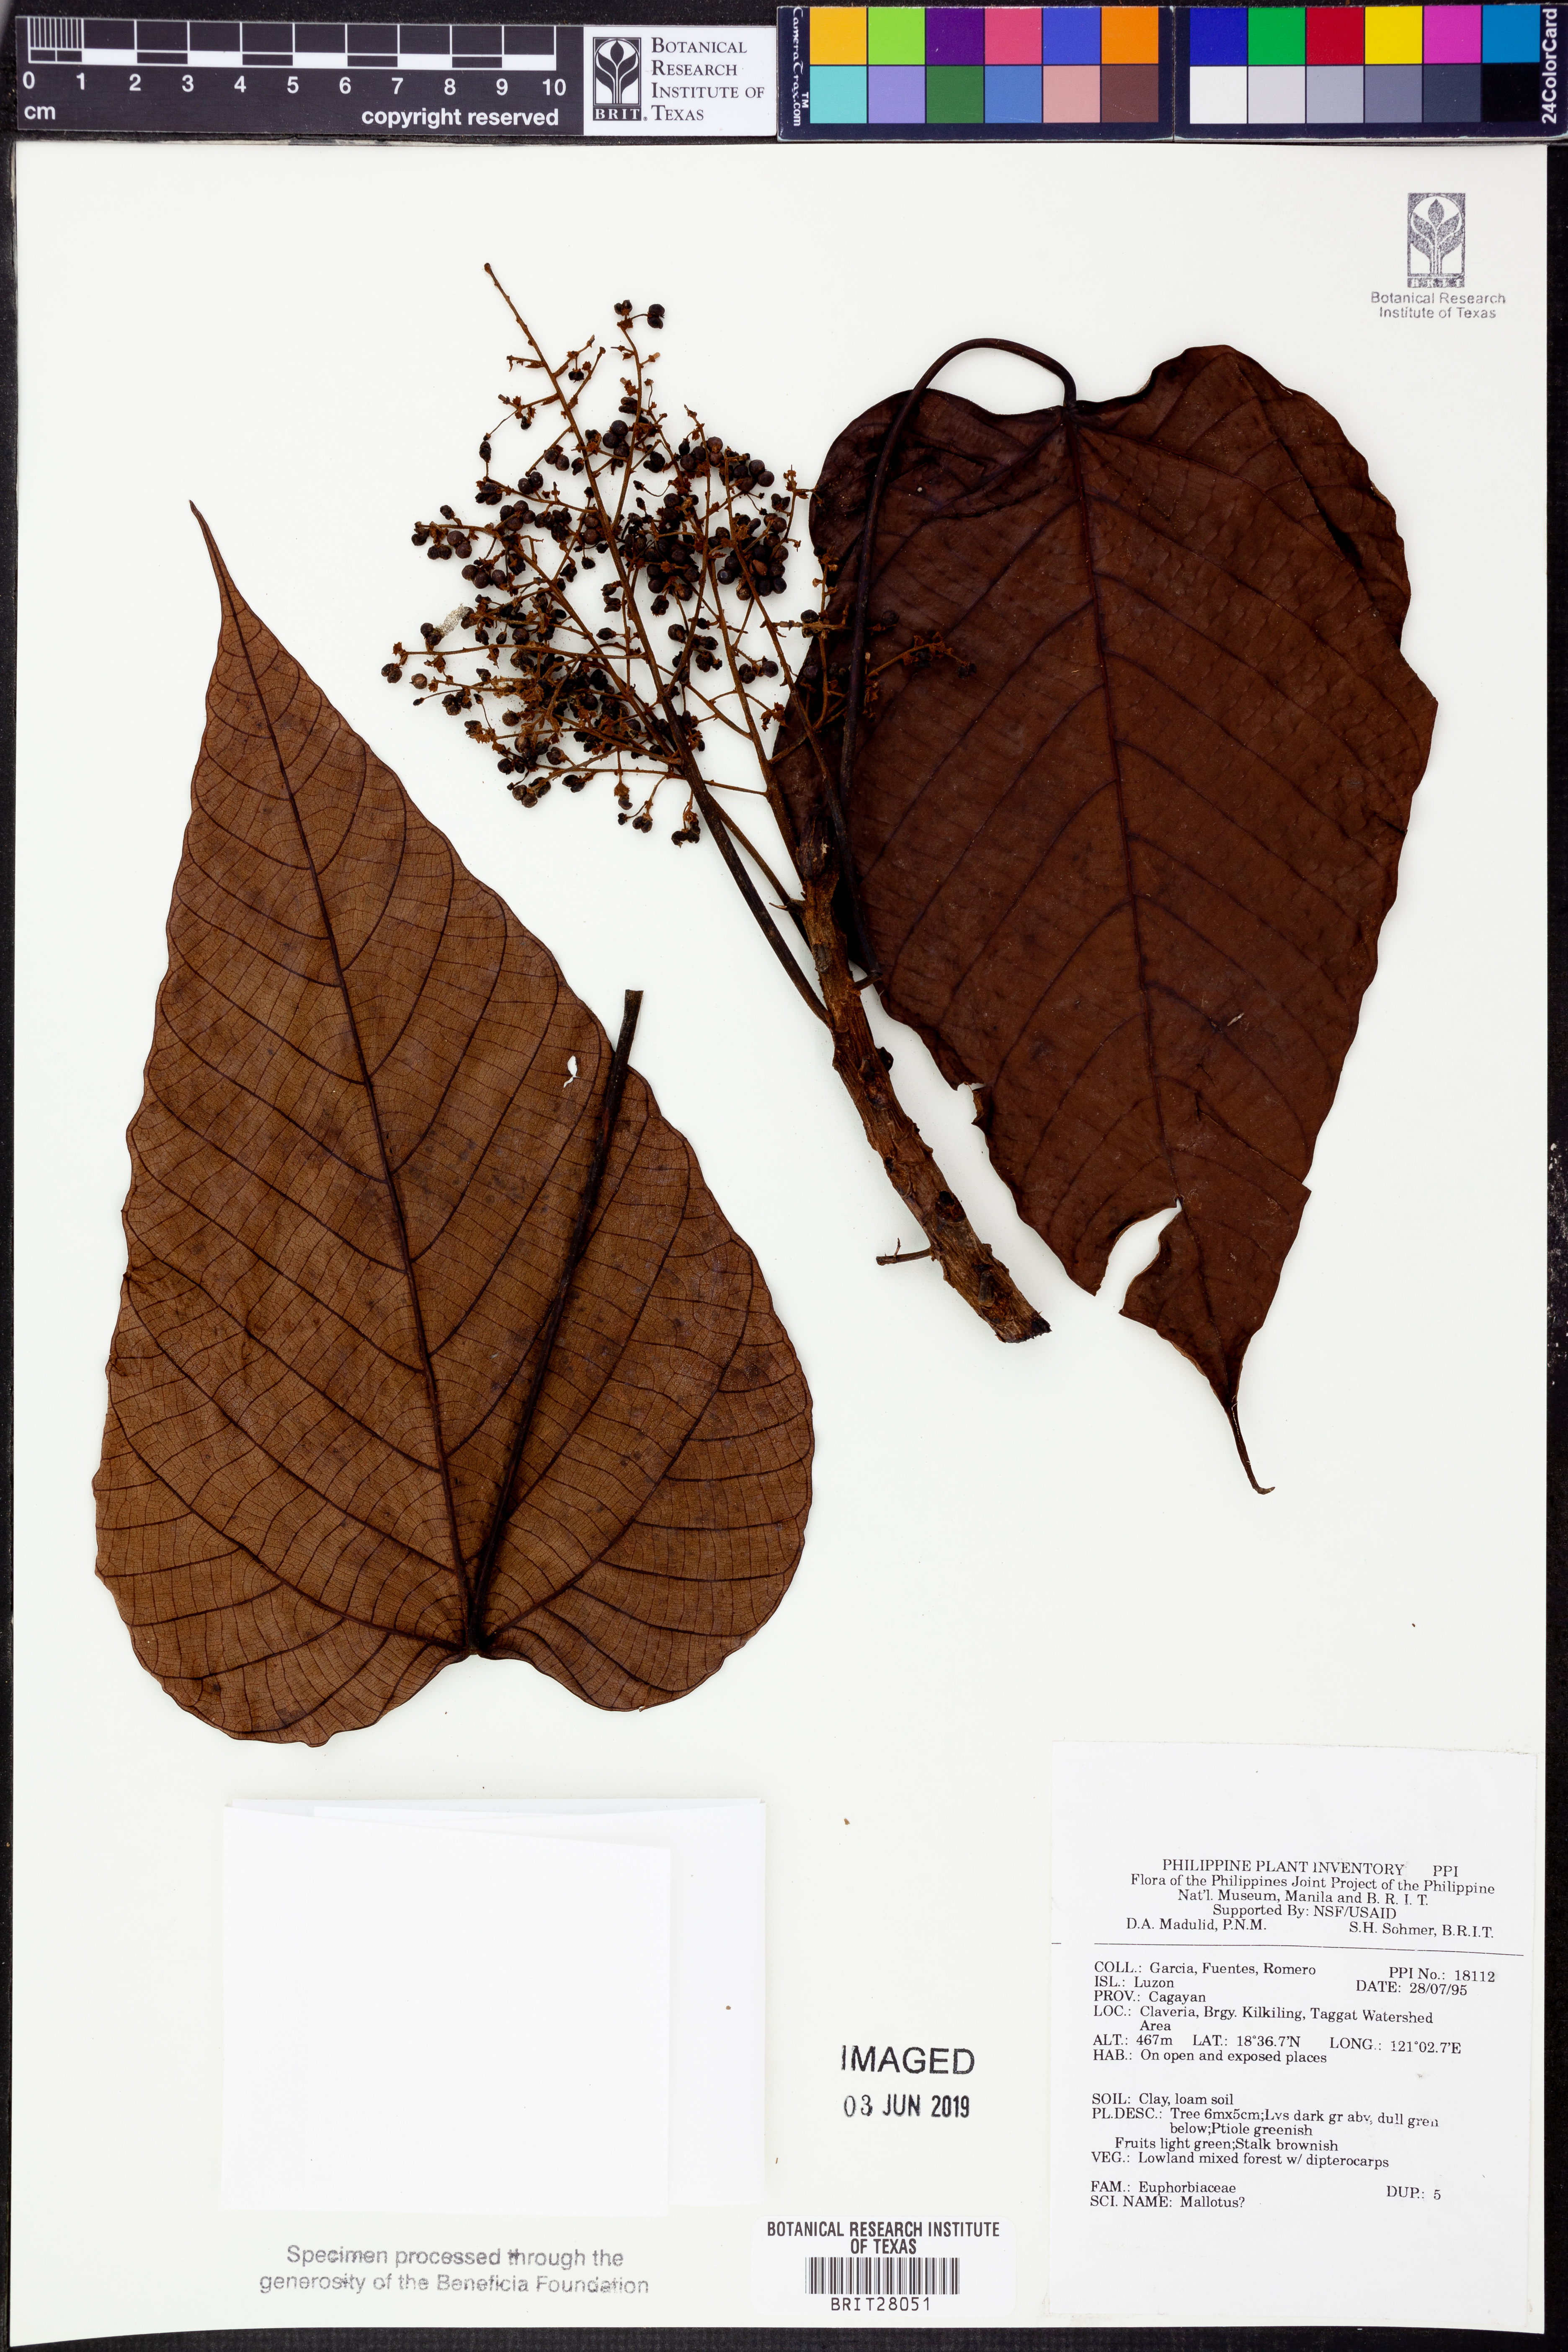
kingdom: Plantae
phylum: Tracheophyta
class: Magnoliopsida
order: Malpighiales
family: Euphorbiaceae
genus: Mallotus
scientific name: Mallotus
